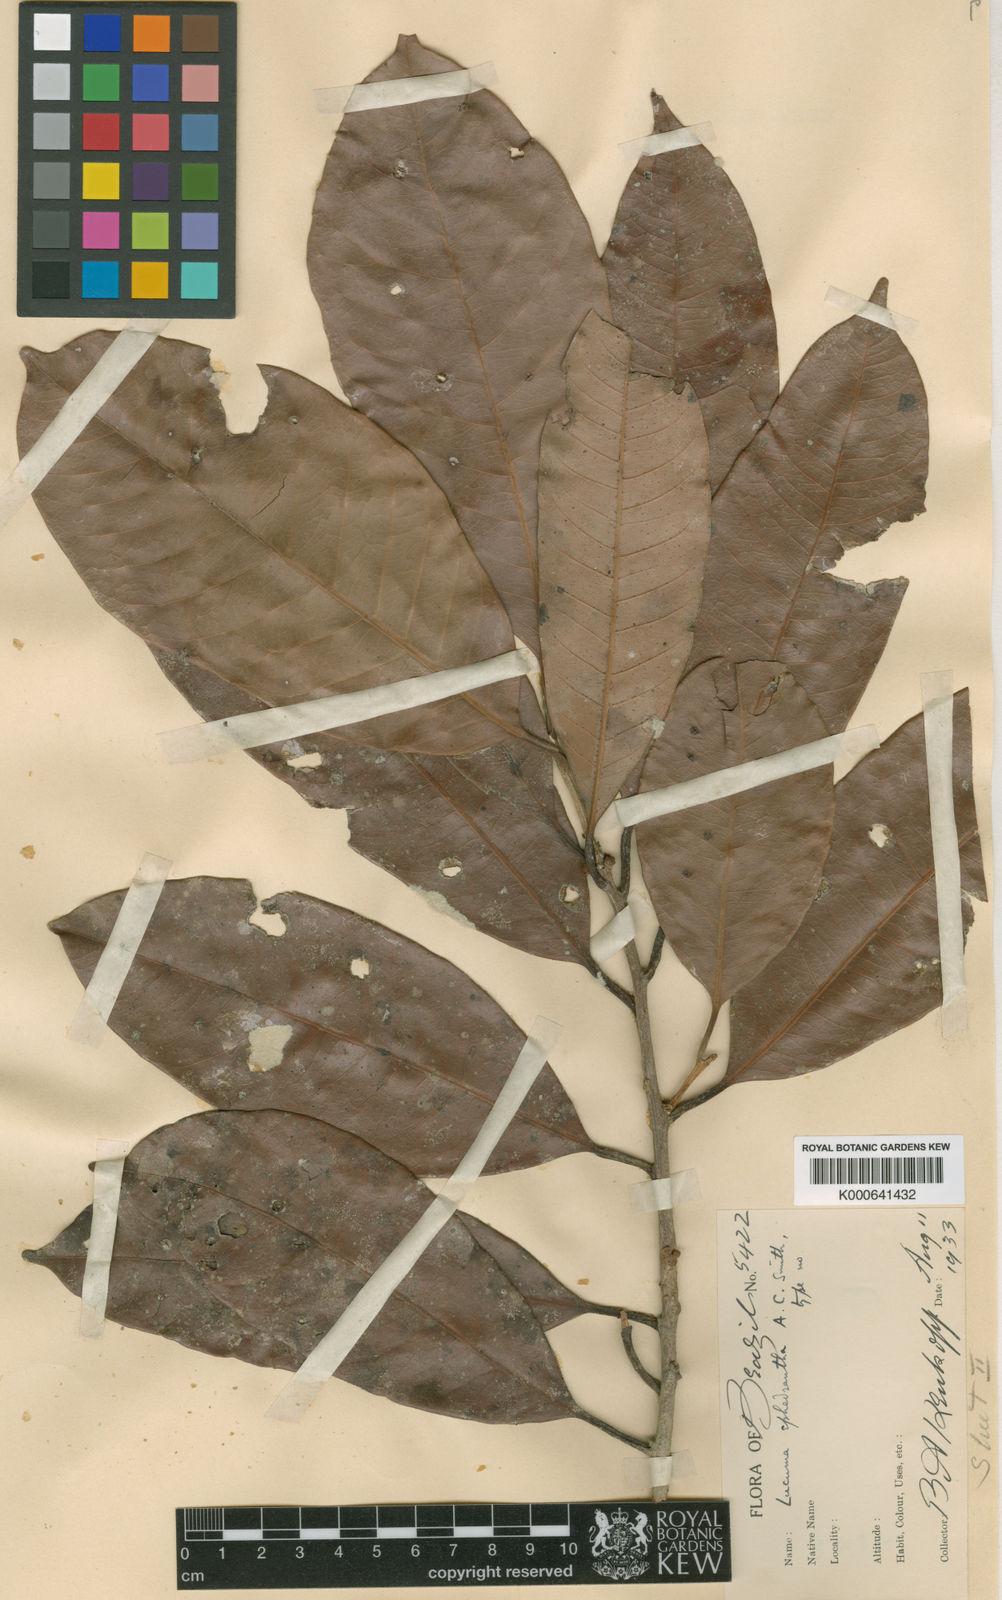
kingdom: Plantae
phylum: Tracheophyta
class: Magnoliopsida
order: Ericales
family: Sapotaceae
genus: Pouteria
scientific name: Pouteria ephedrantha
